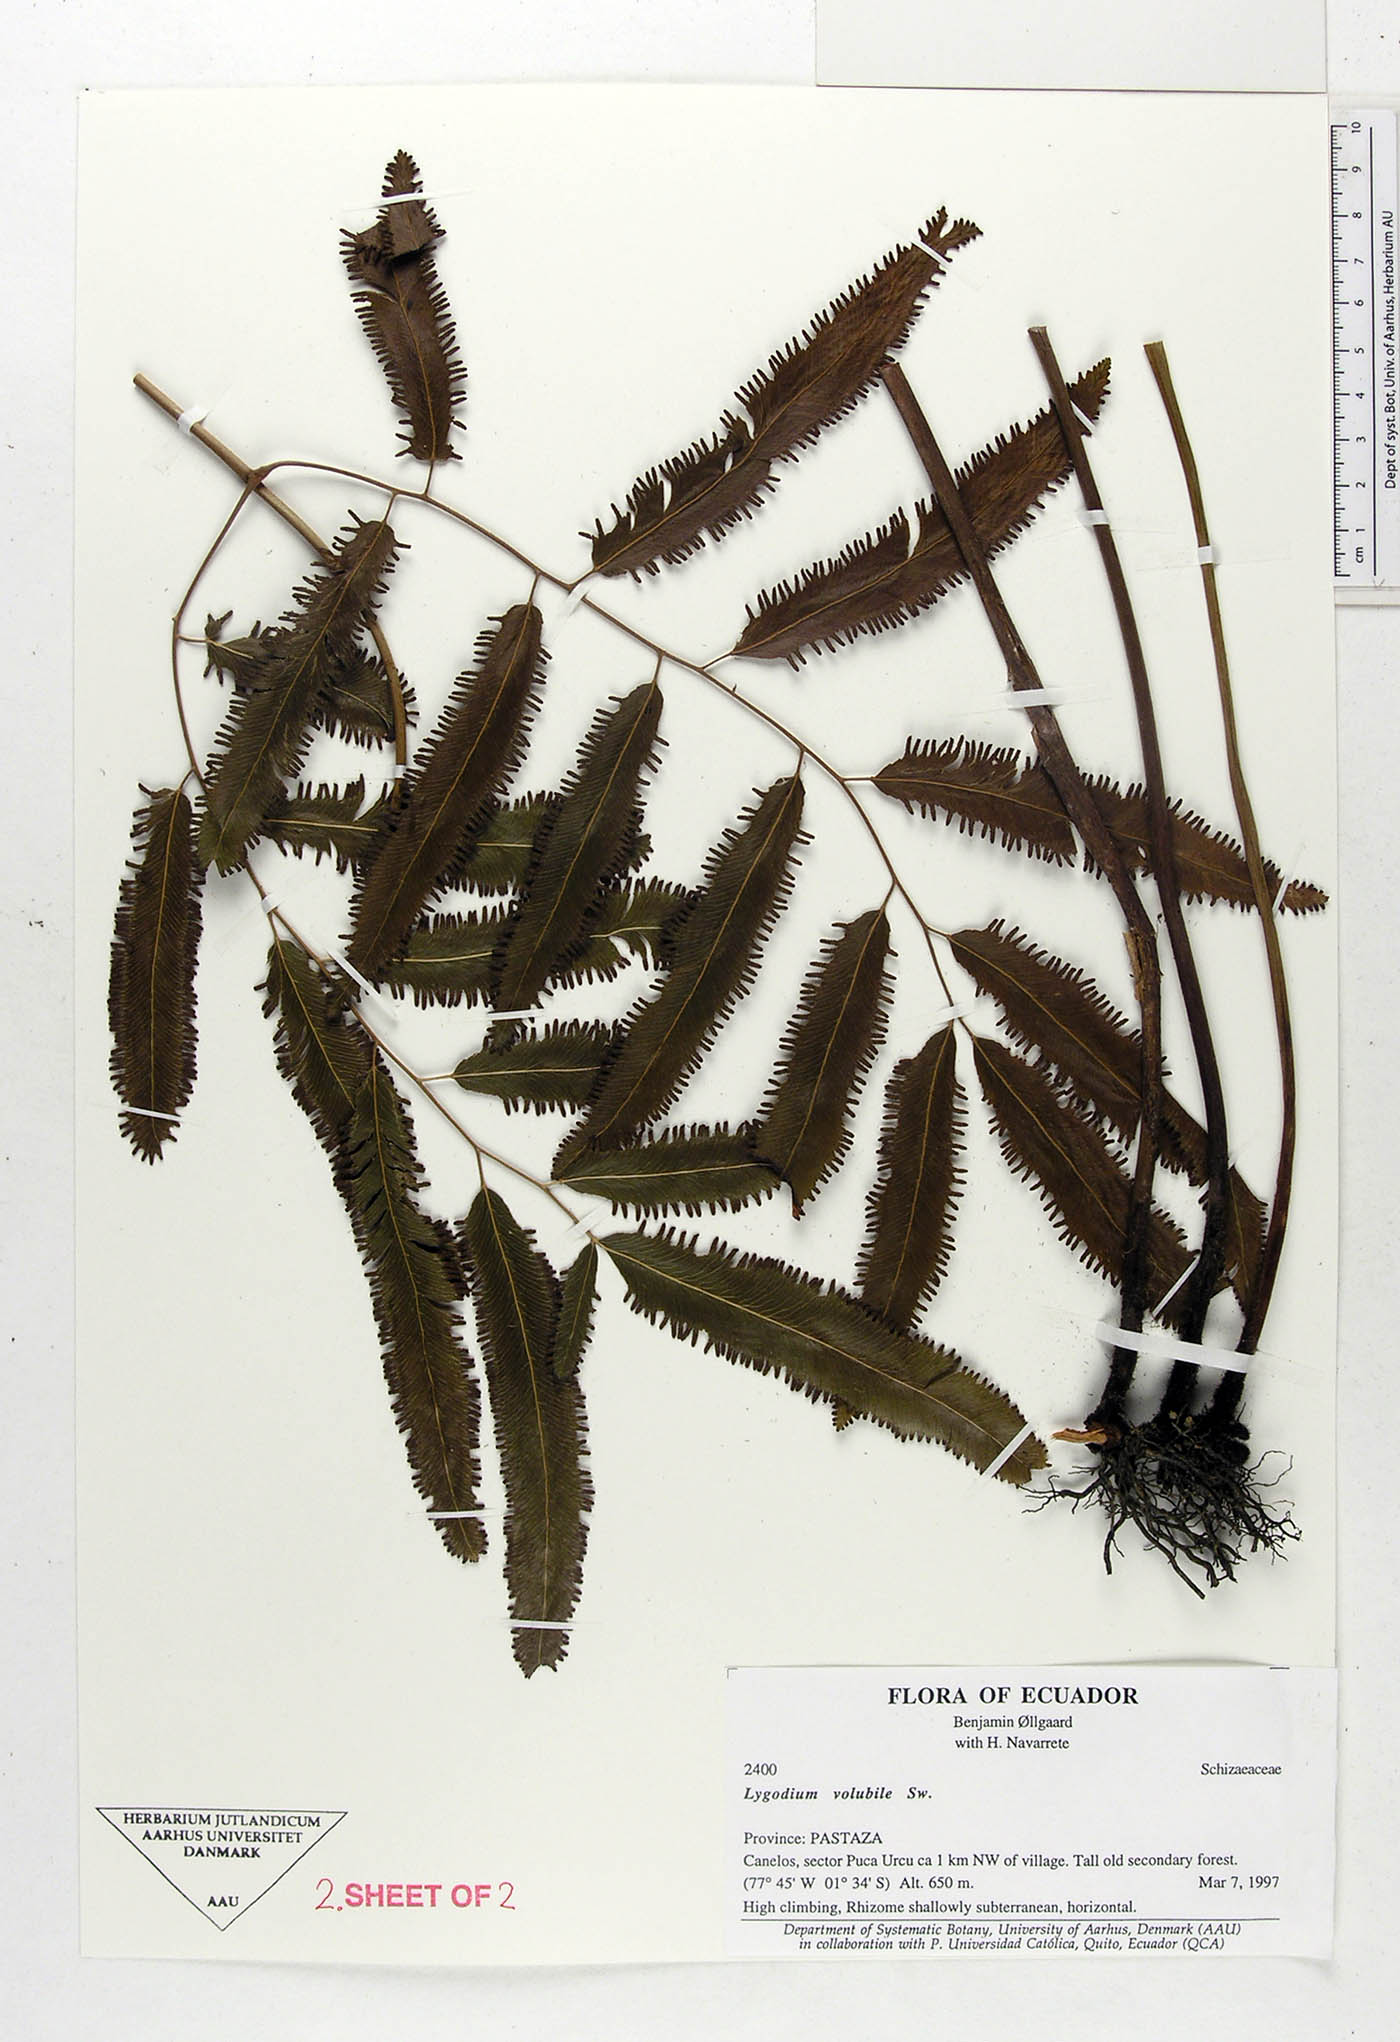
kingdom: Plantae
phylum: Tracheophyta
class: Polypodiopsida
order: Schizaeales
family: Lygodiaceae
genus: Lygodium
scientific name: Lygodium volubile
